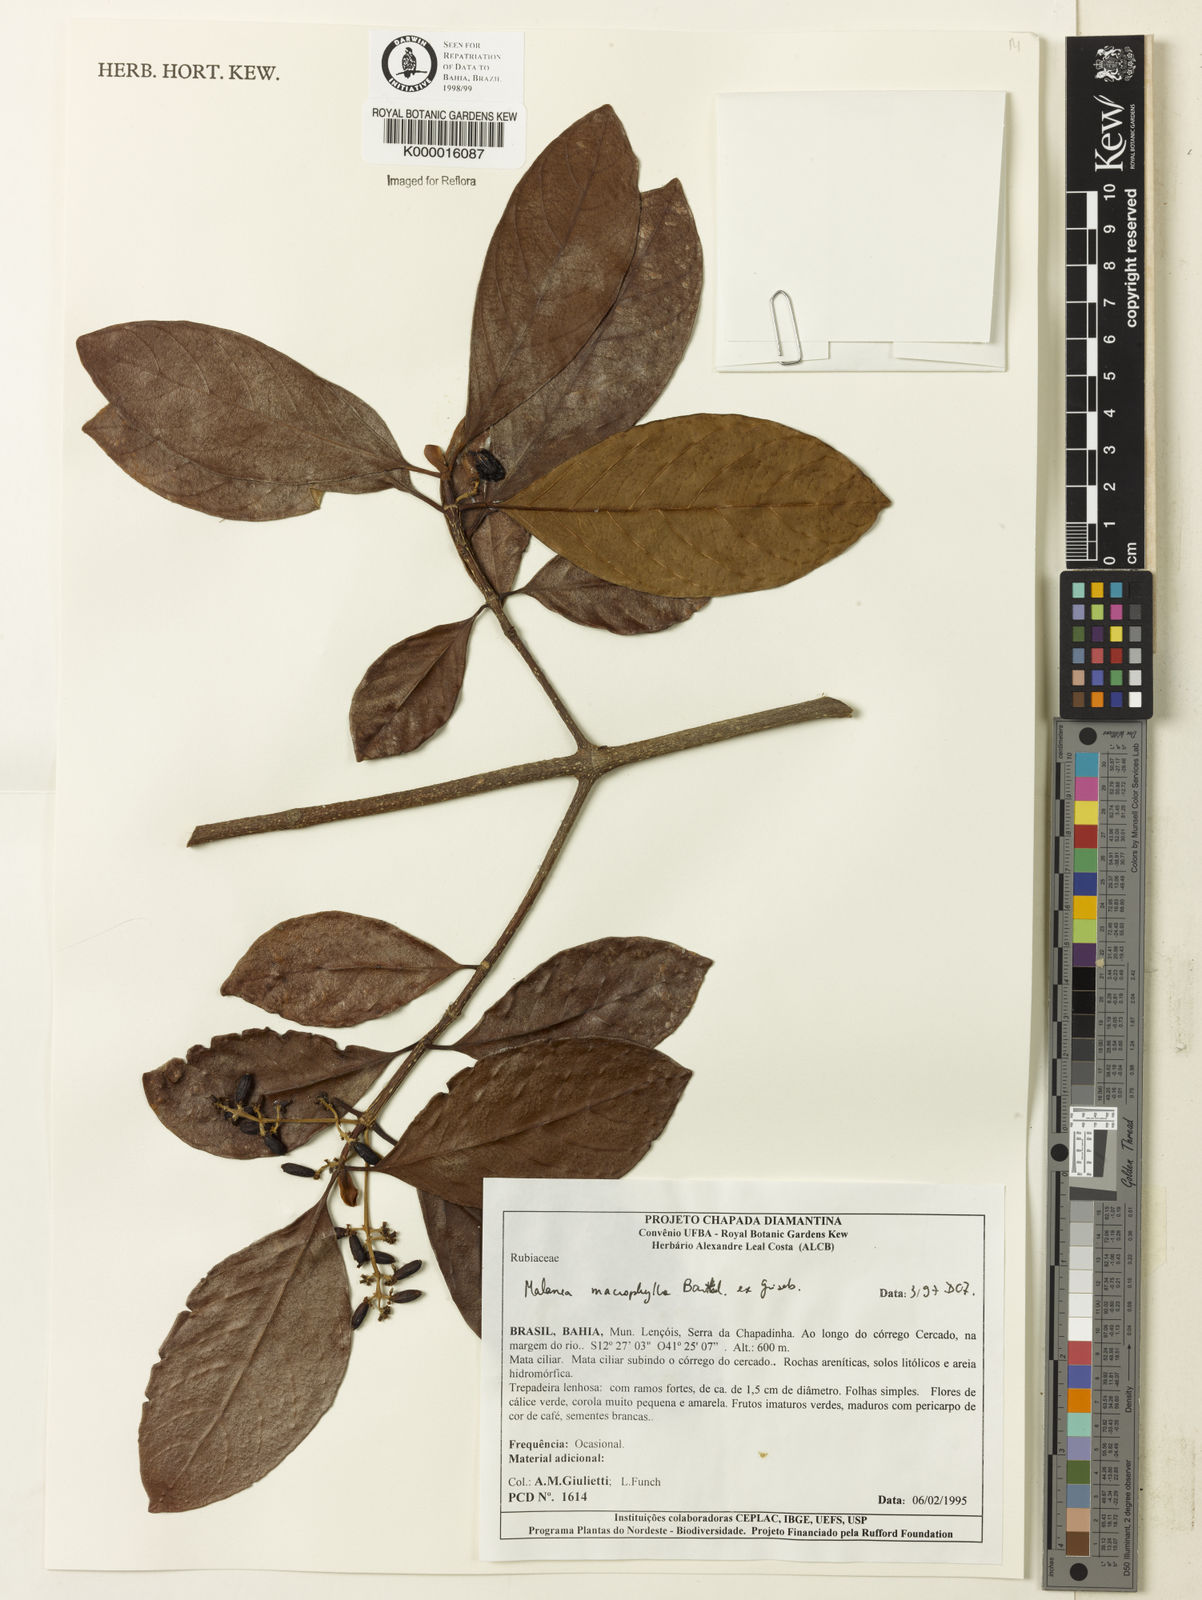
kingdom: Plantae
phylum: Tracheophyta
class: Magnoliopsida
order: Gentianales
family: Rubiaceae
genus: Malanea
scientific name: Malanea glabra
